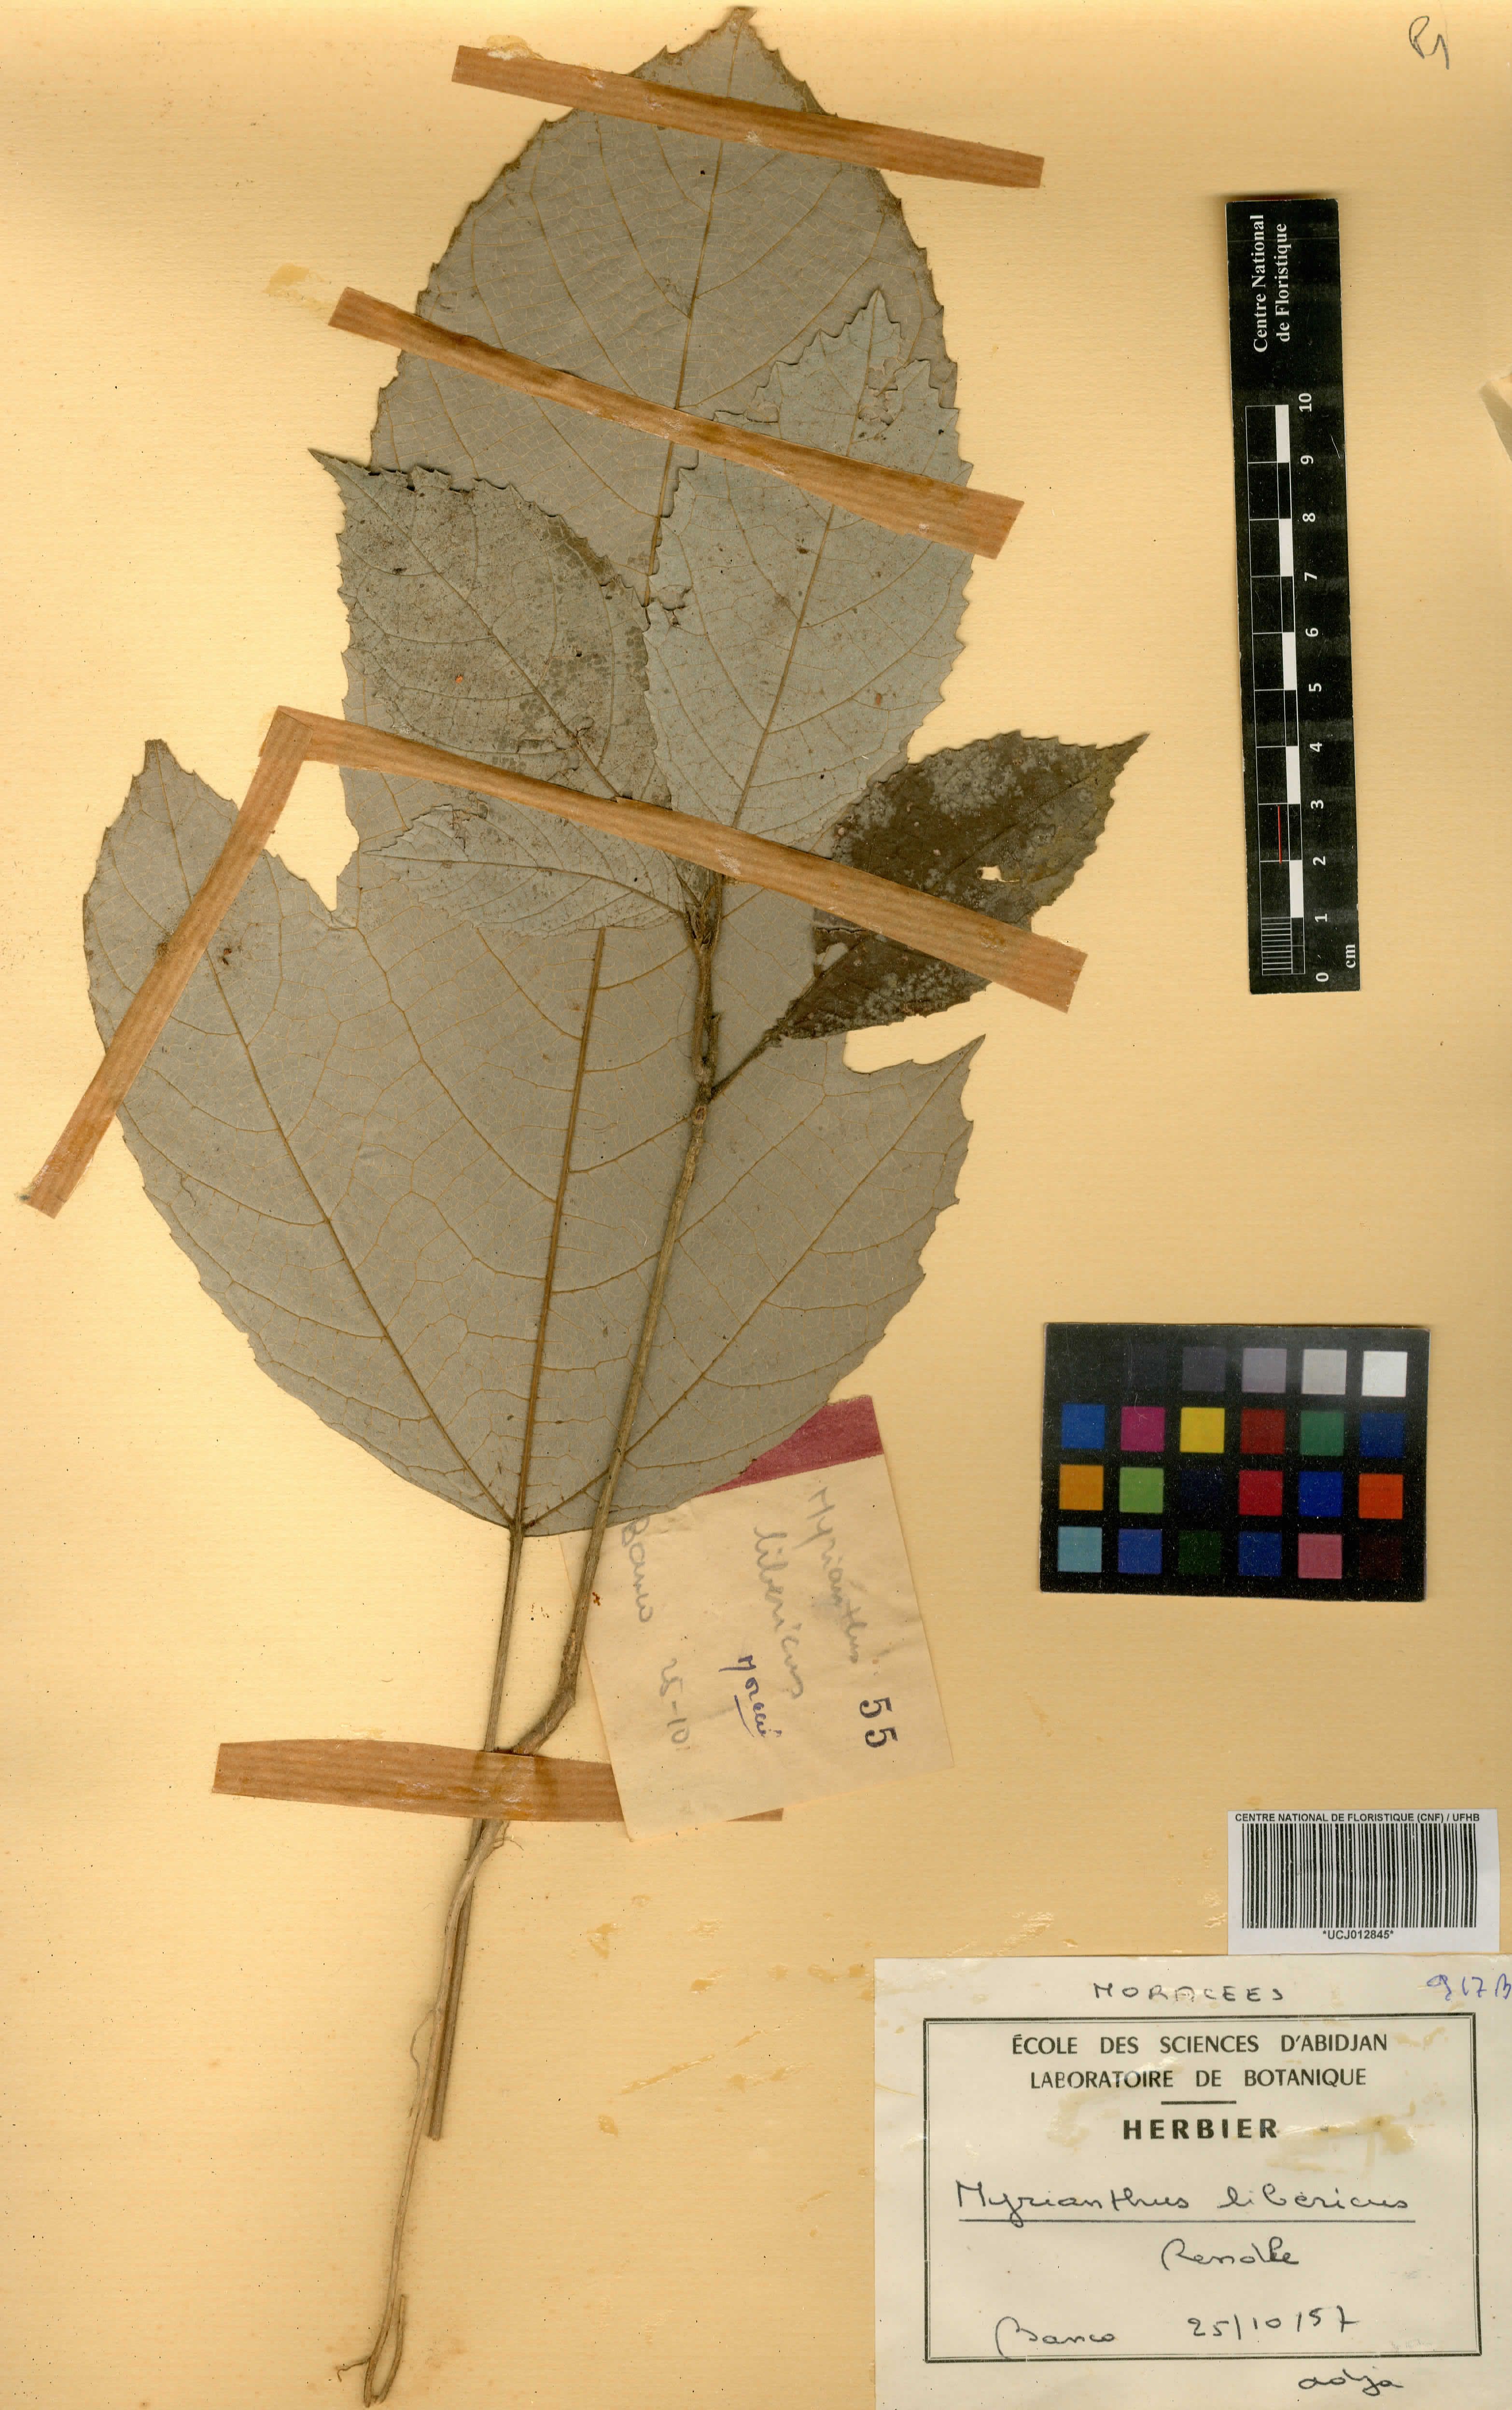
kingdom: Plantae
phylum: Tracheophyta
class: Magnoliopsida
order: Rosales
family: Urticaceae
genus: Myrianthus
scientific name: Myrianthus libericus
